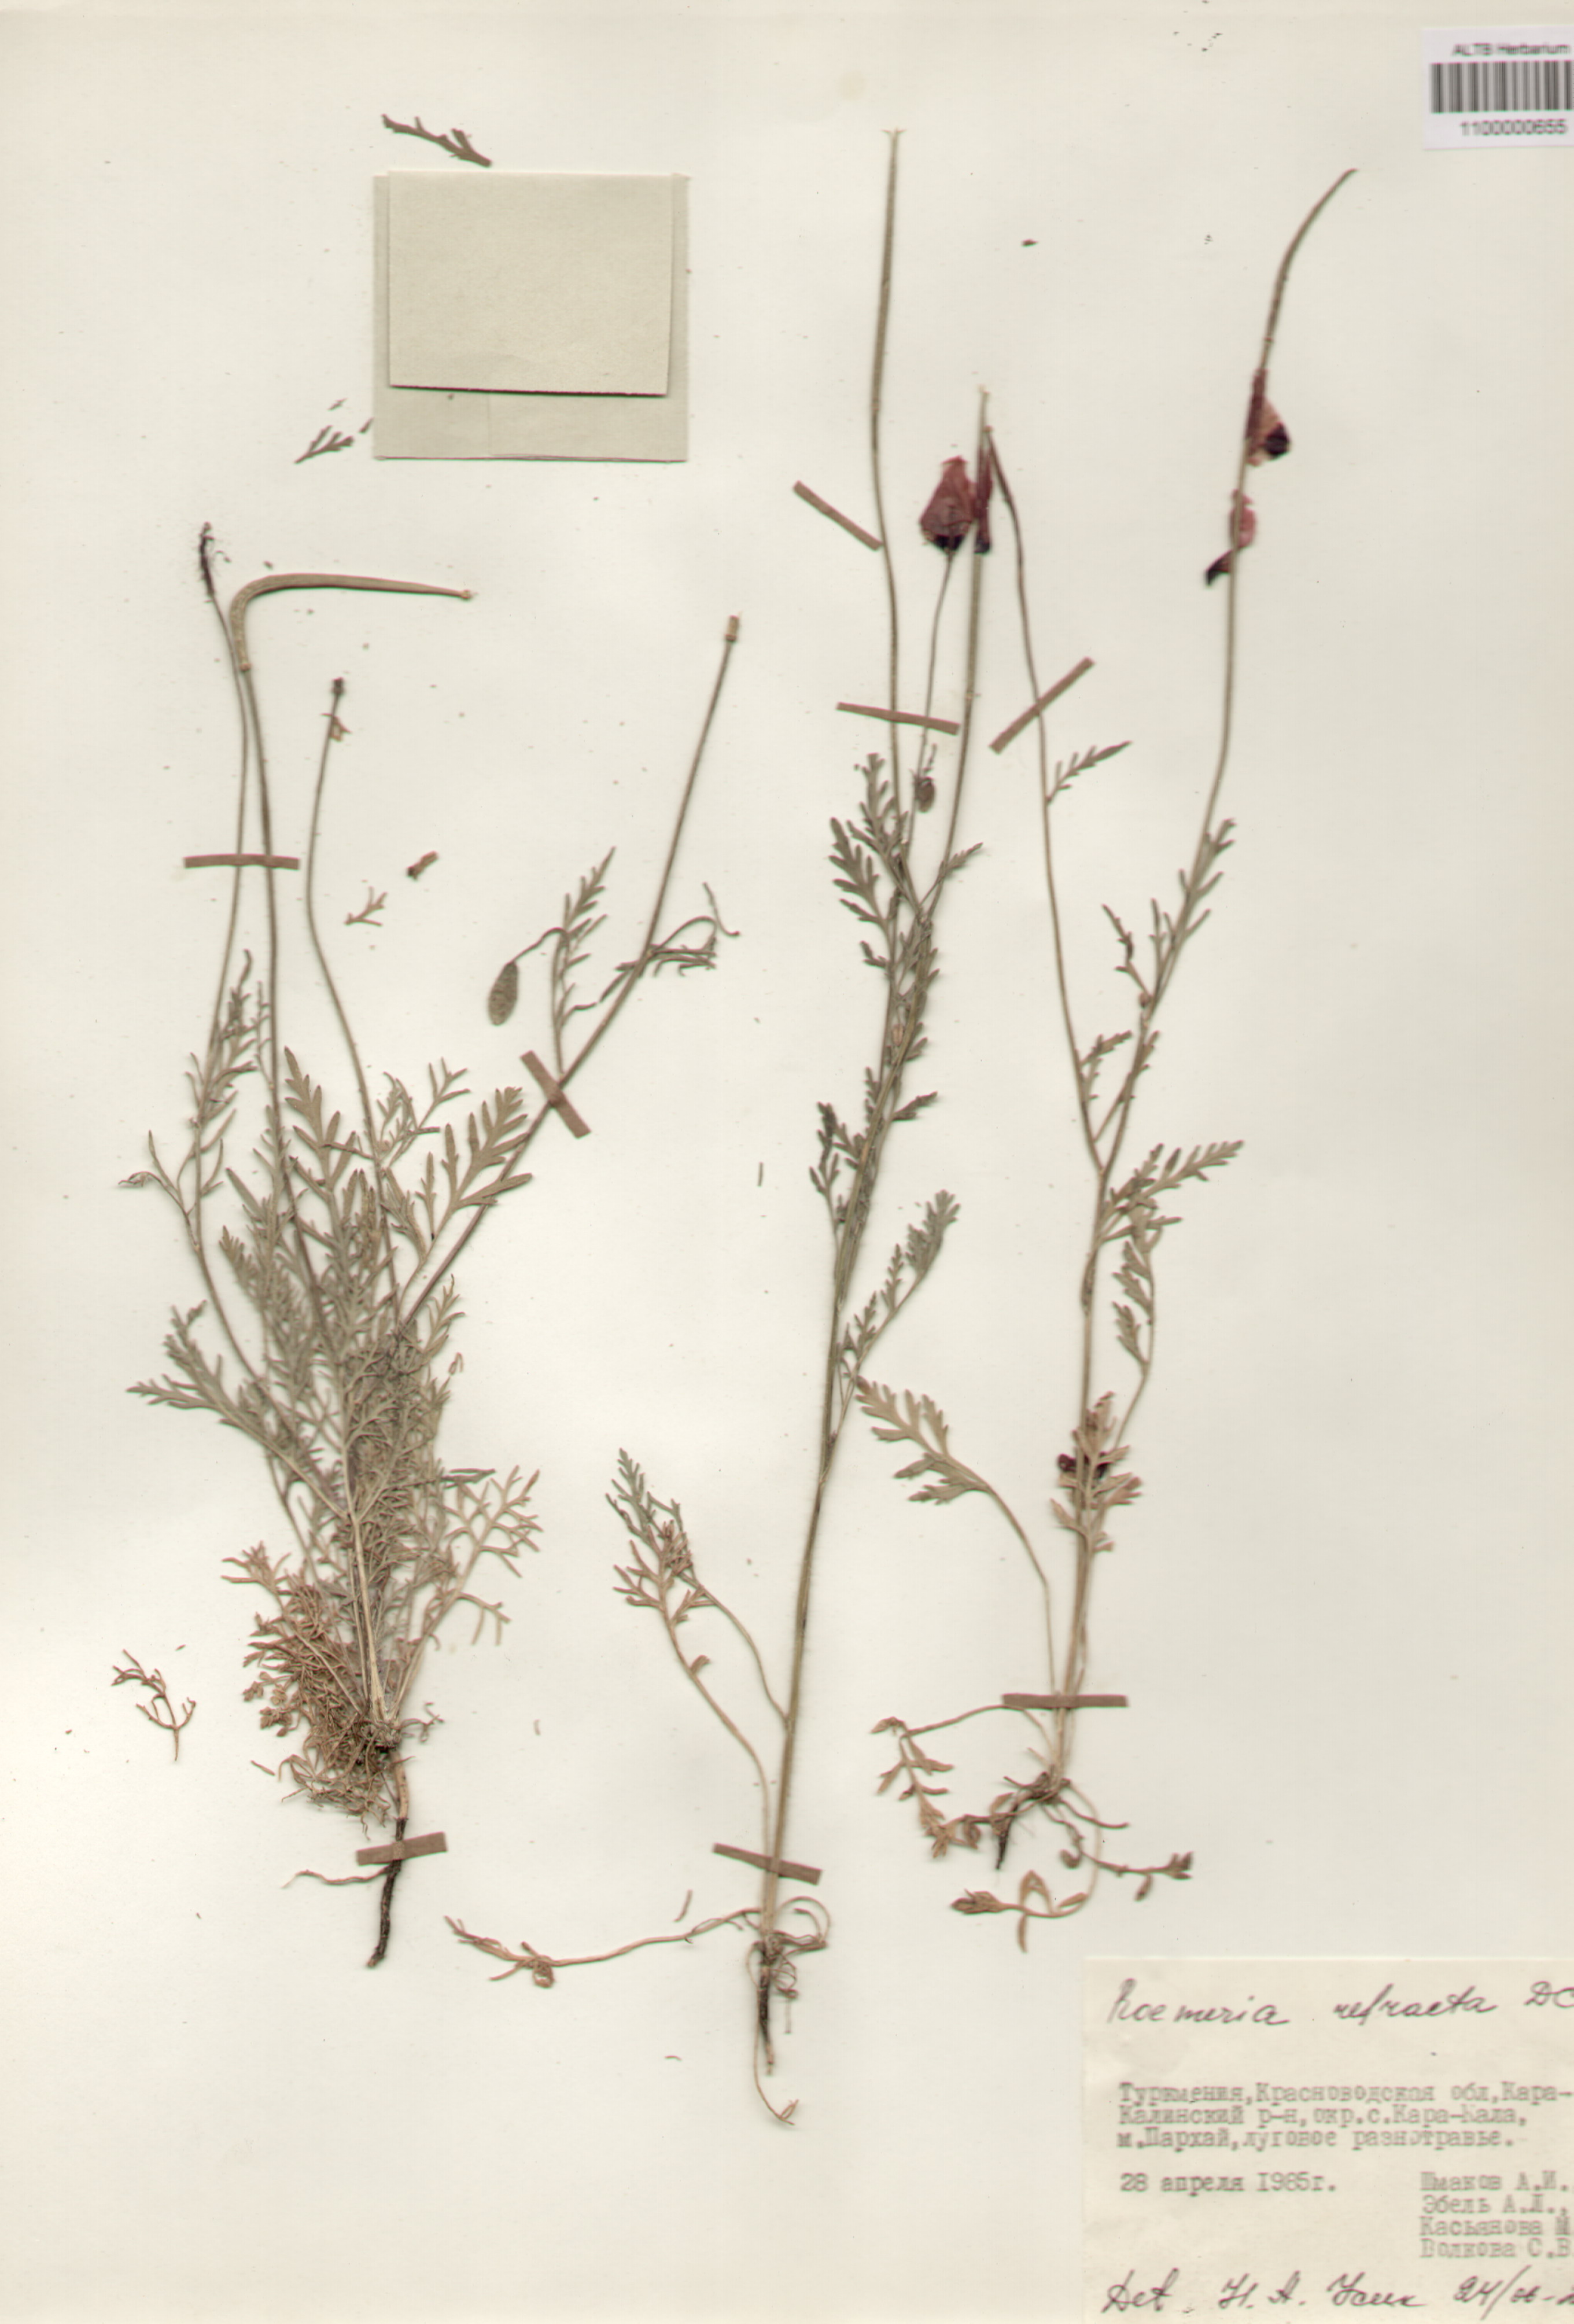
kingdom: Plantae
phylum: Tracheophyta
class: Magnoliopsida
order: Ranunculales
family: Papaveraceae
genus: Roemeria
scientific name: Roemeria refracta
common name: Spotted asian poppy
